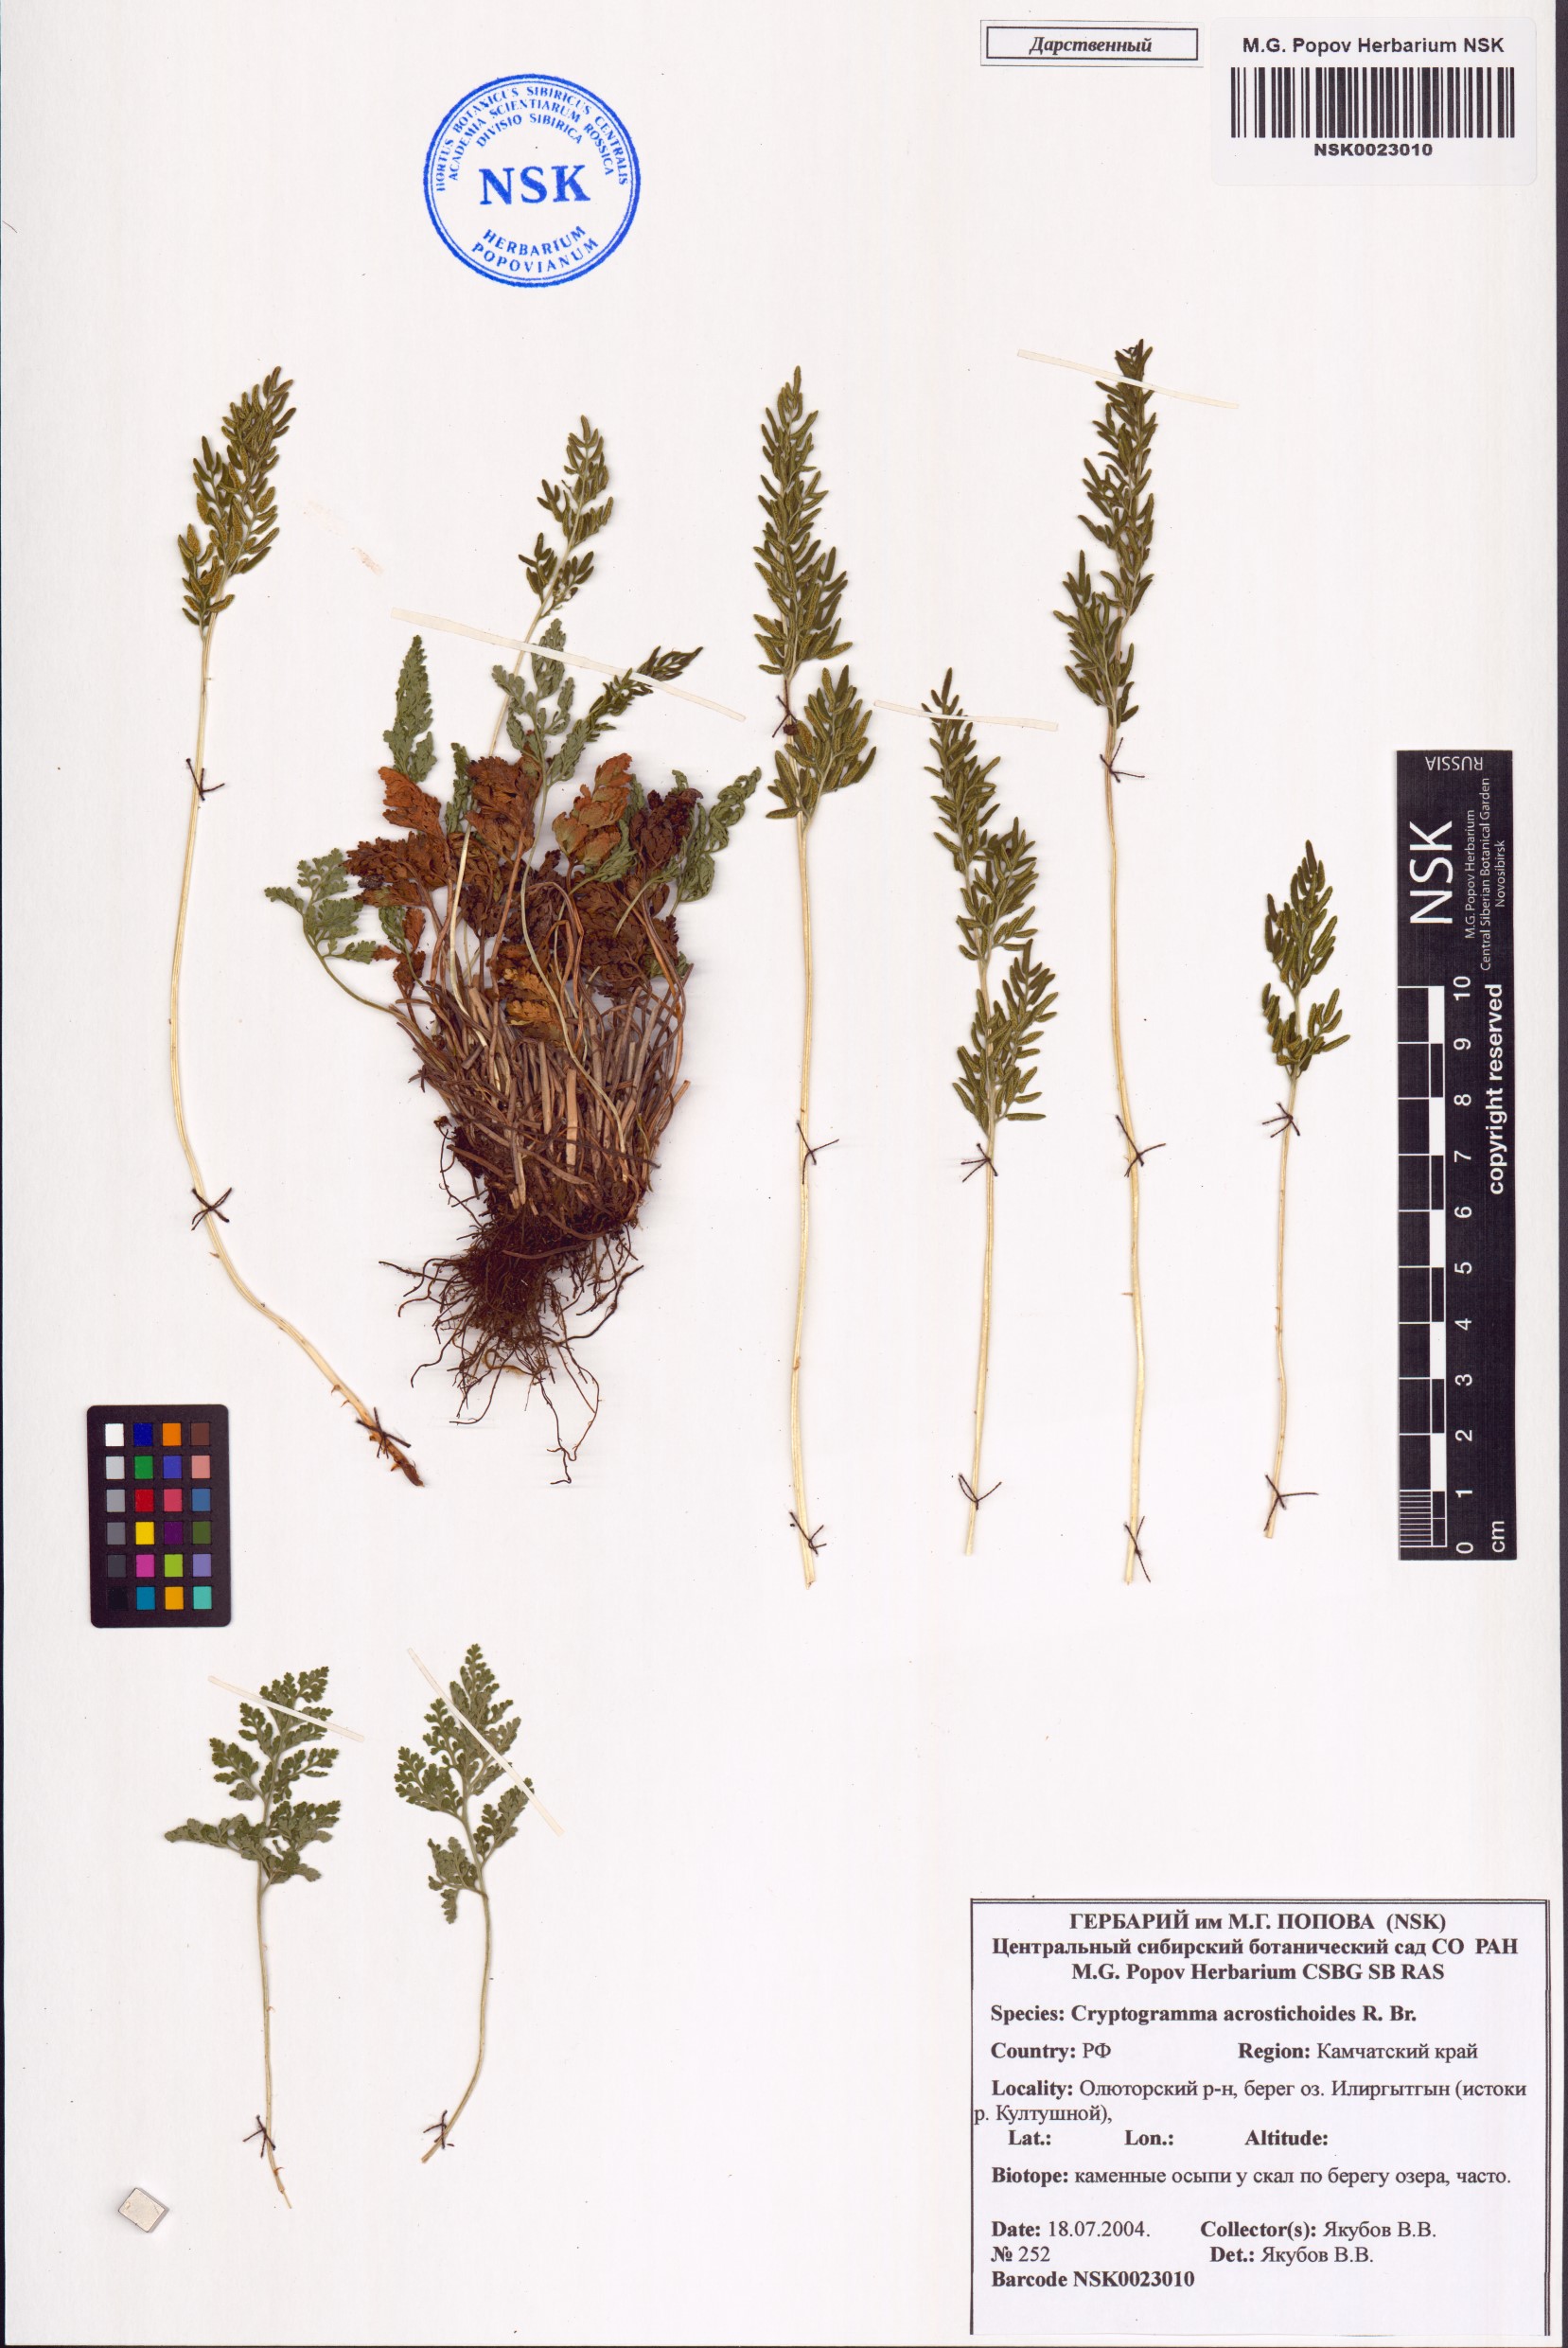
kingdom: Plantae
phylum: Tracheophyta
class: Polypodiopsida
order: Polypodiales
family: Pteridaceae
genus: Cryptogramma
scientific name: Cryptogramma acrostichoides
